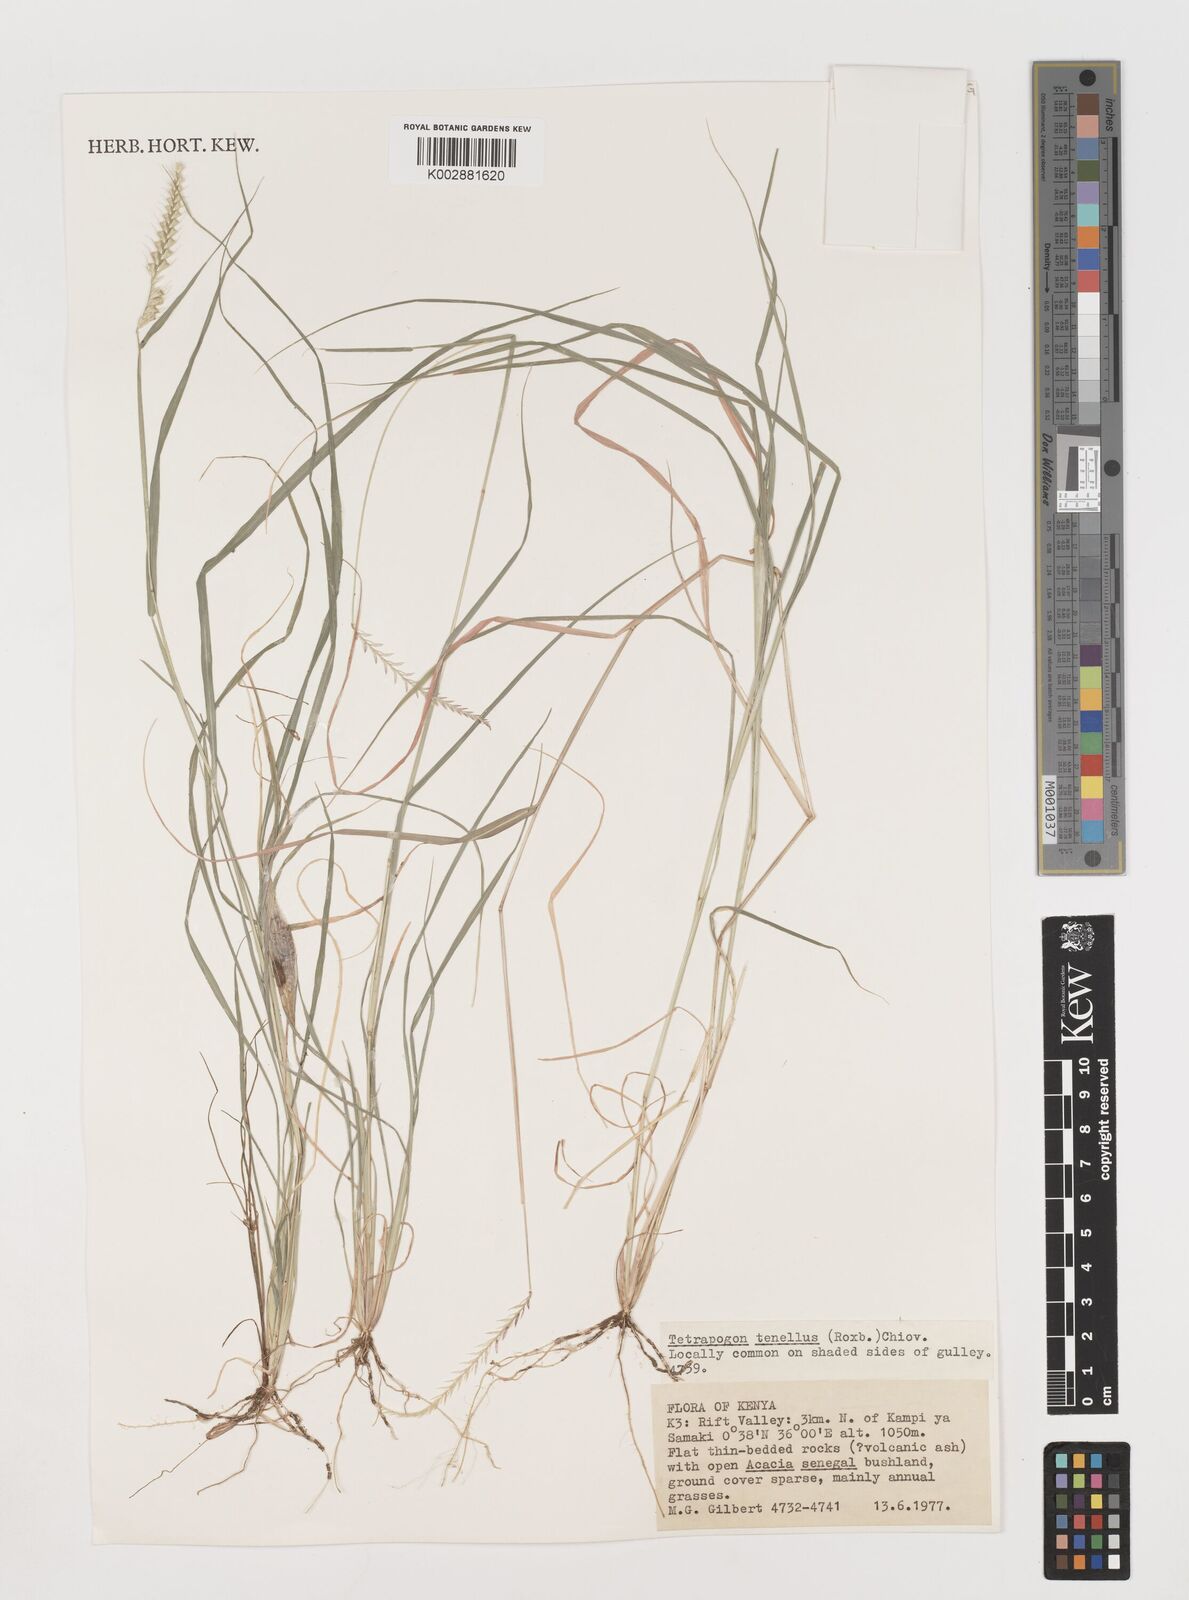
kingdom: Plantae
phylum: Tracheophyta
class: Liliopsida
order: Poales
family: Poaceae
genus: Tetrapogon
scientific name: Tetrapogon tenellus
